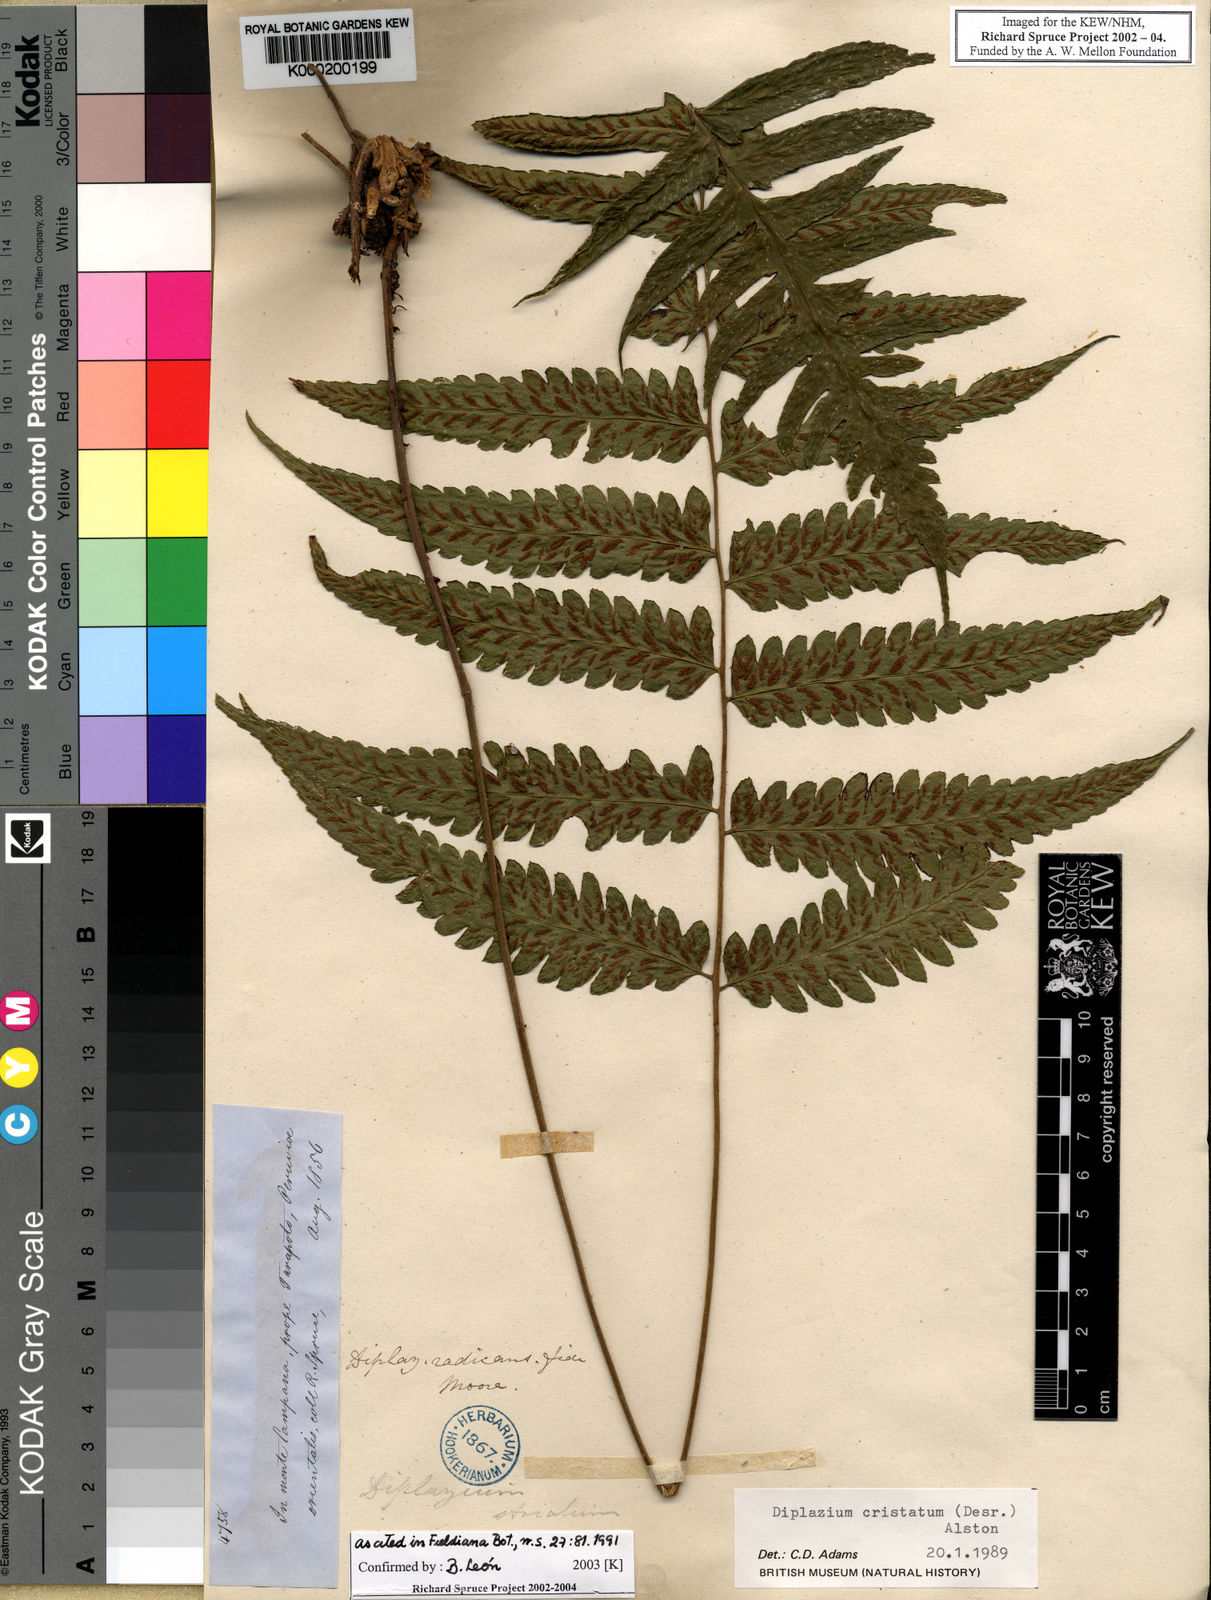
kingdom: Plantae
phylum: Tracheophyta
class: Polypodiopsida
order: Polypodiales
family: Athyriaceae
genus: Diplazium
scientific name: Diplazium
